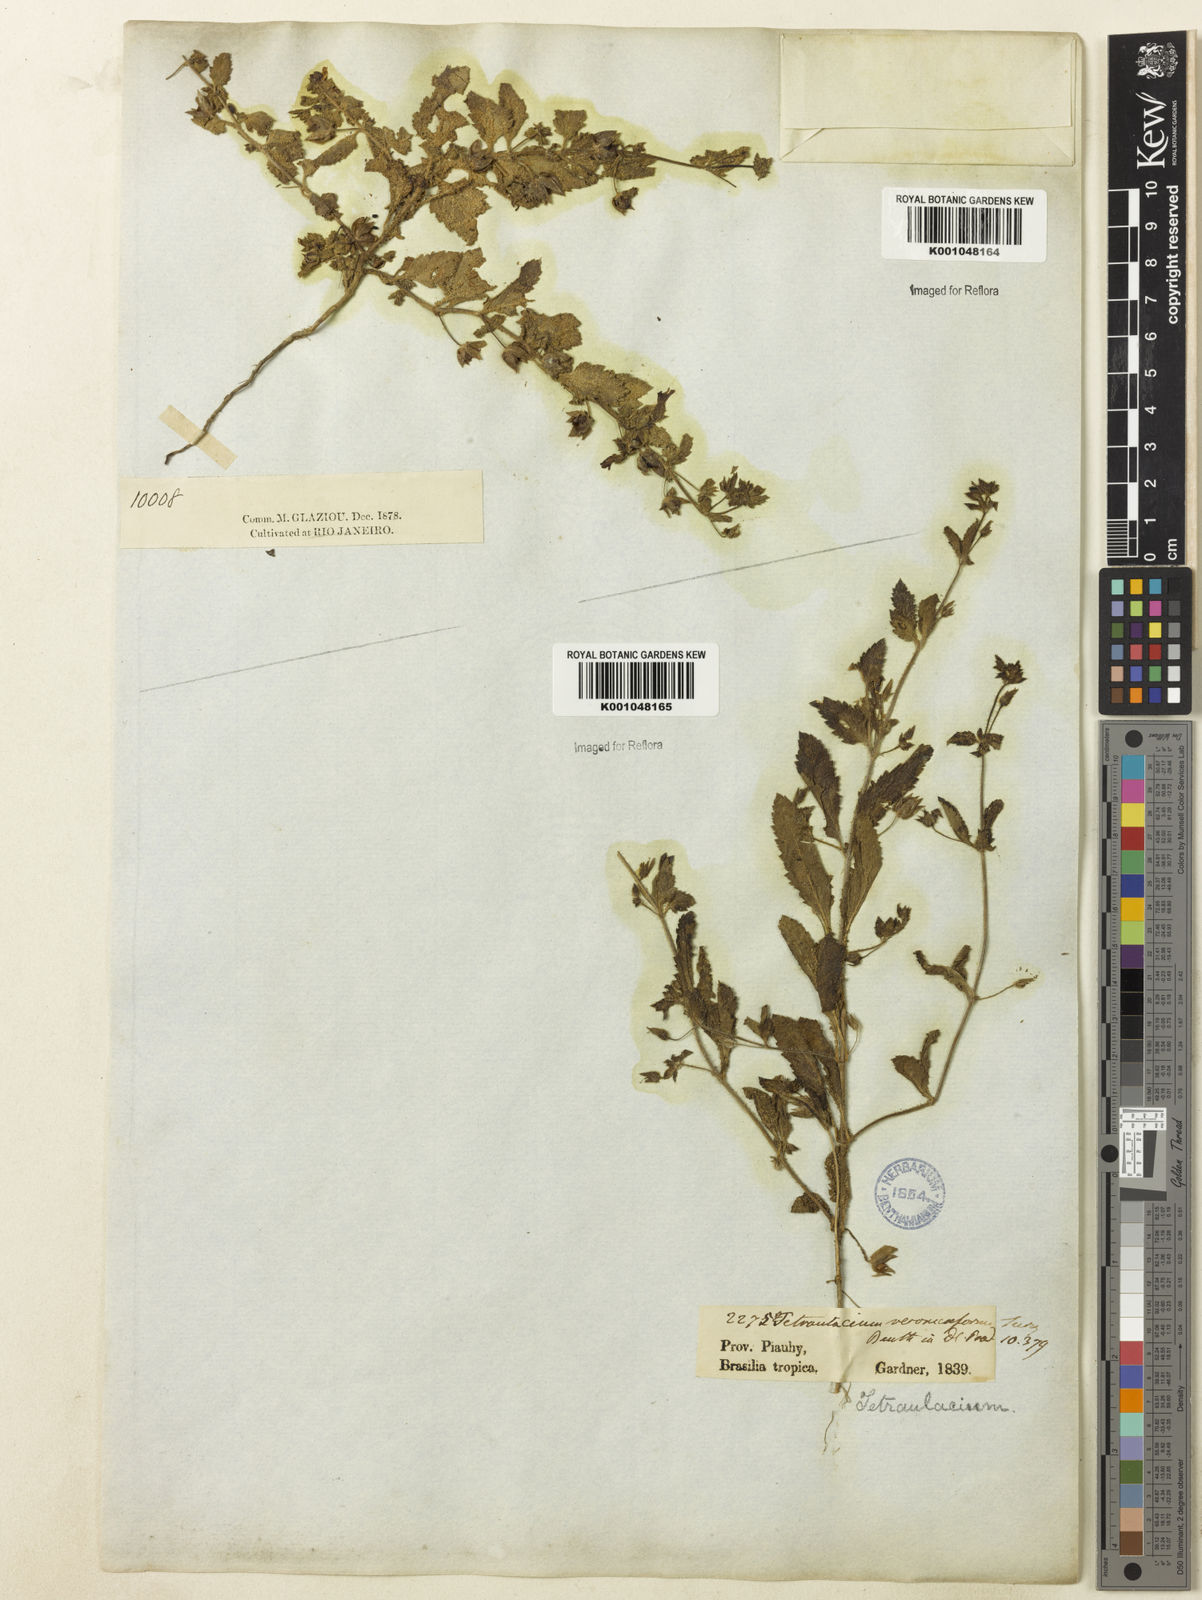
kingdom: Plantae
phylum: Tracheophyta
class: Magnoliopsida
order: Lamiales
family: Plantaginaceae
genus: Tetraulacium
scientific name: Tetraulacium veroniciforme
